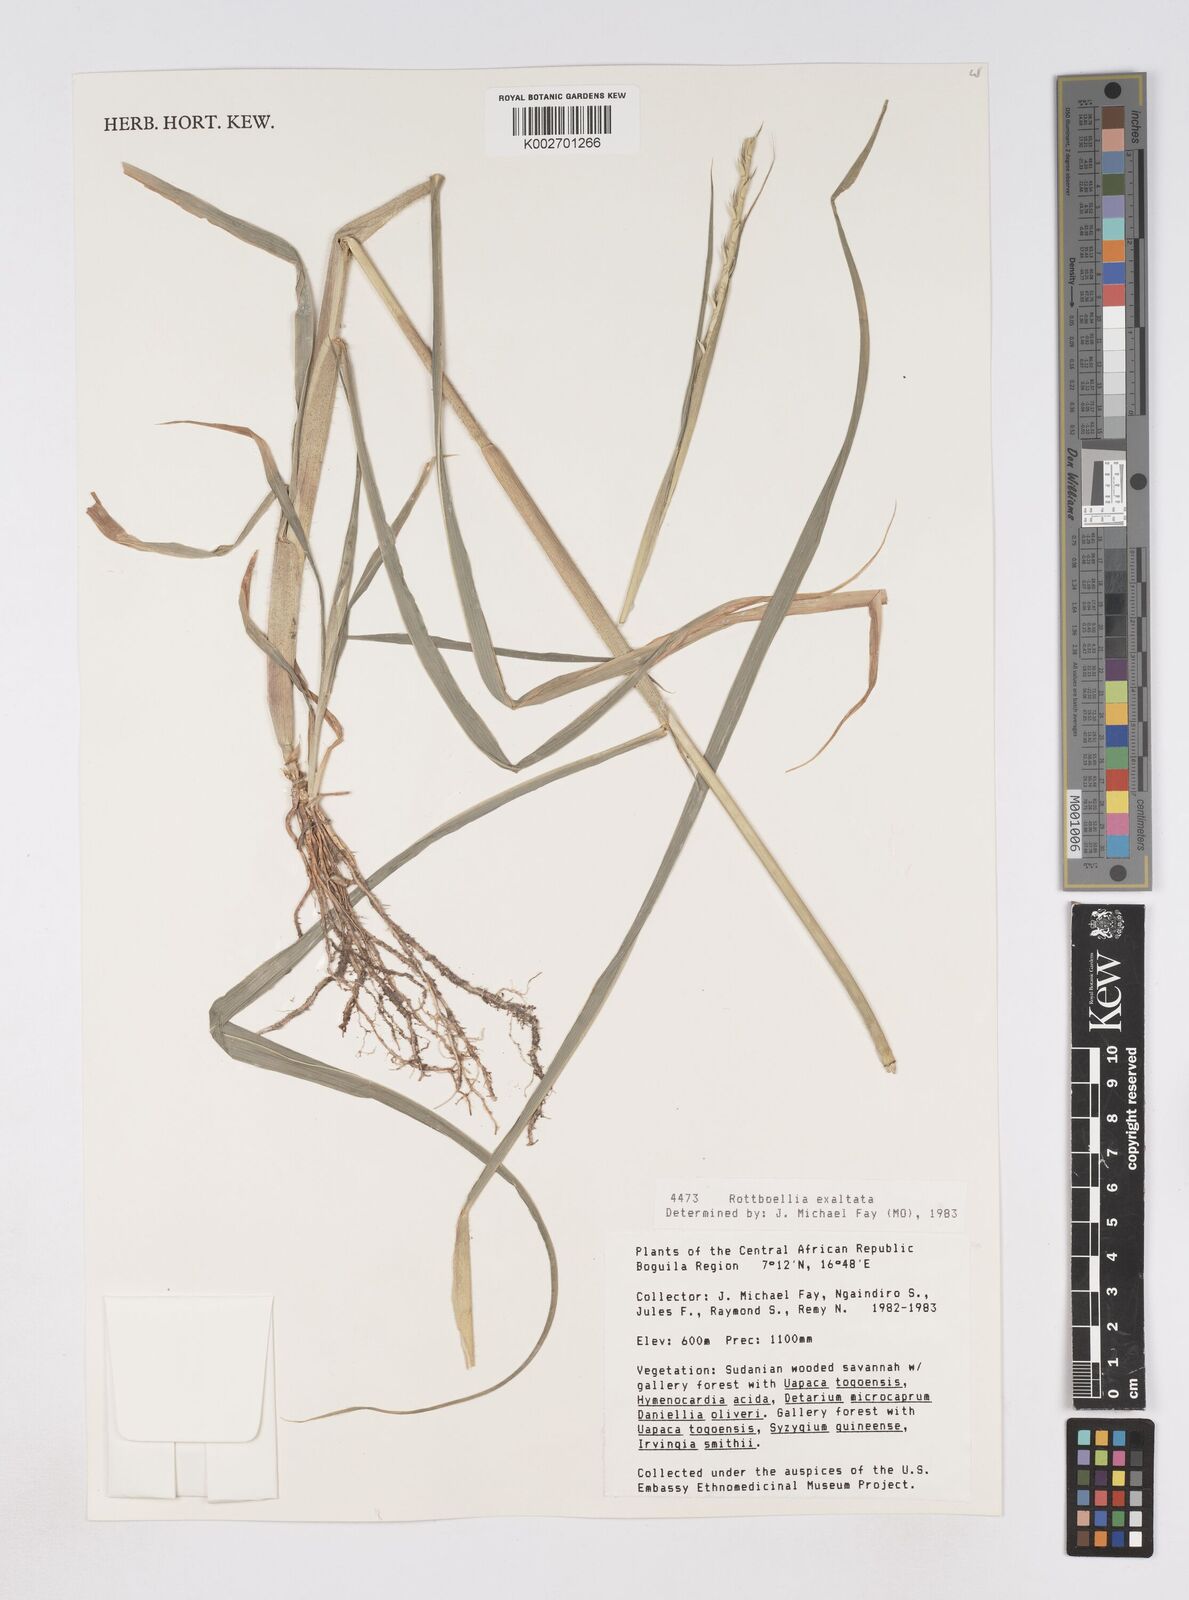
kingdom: Plantae
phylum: Tracheophyta
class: Liliopsida
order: Poales
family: Poaceae
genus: Rottboellia
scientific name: Rottboellia
